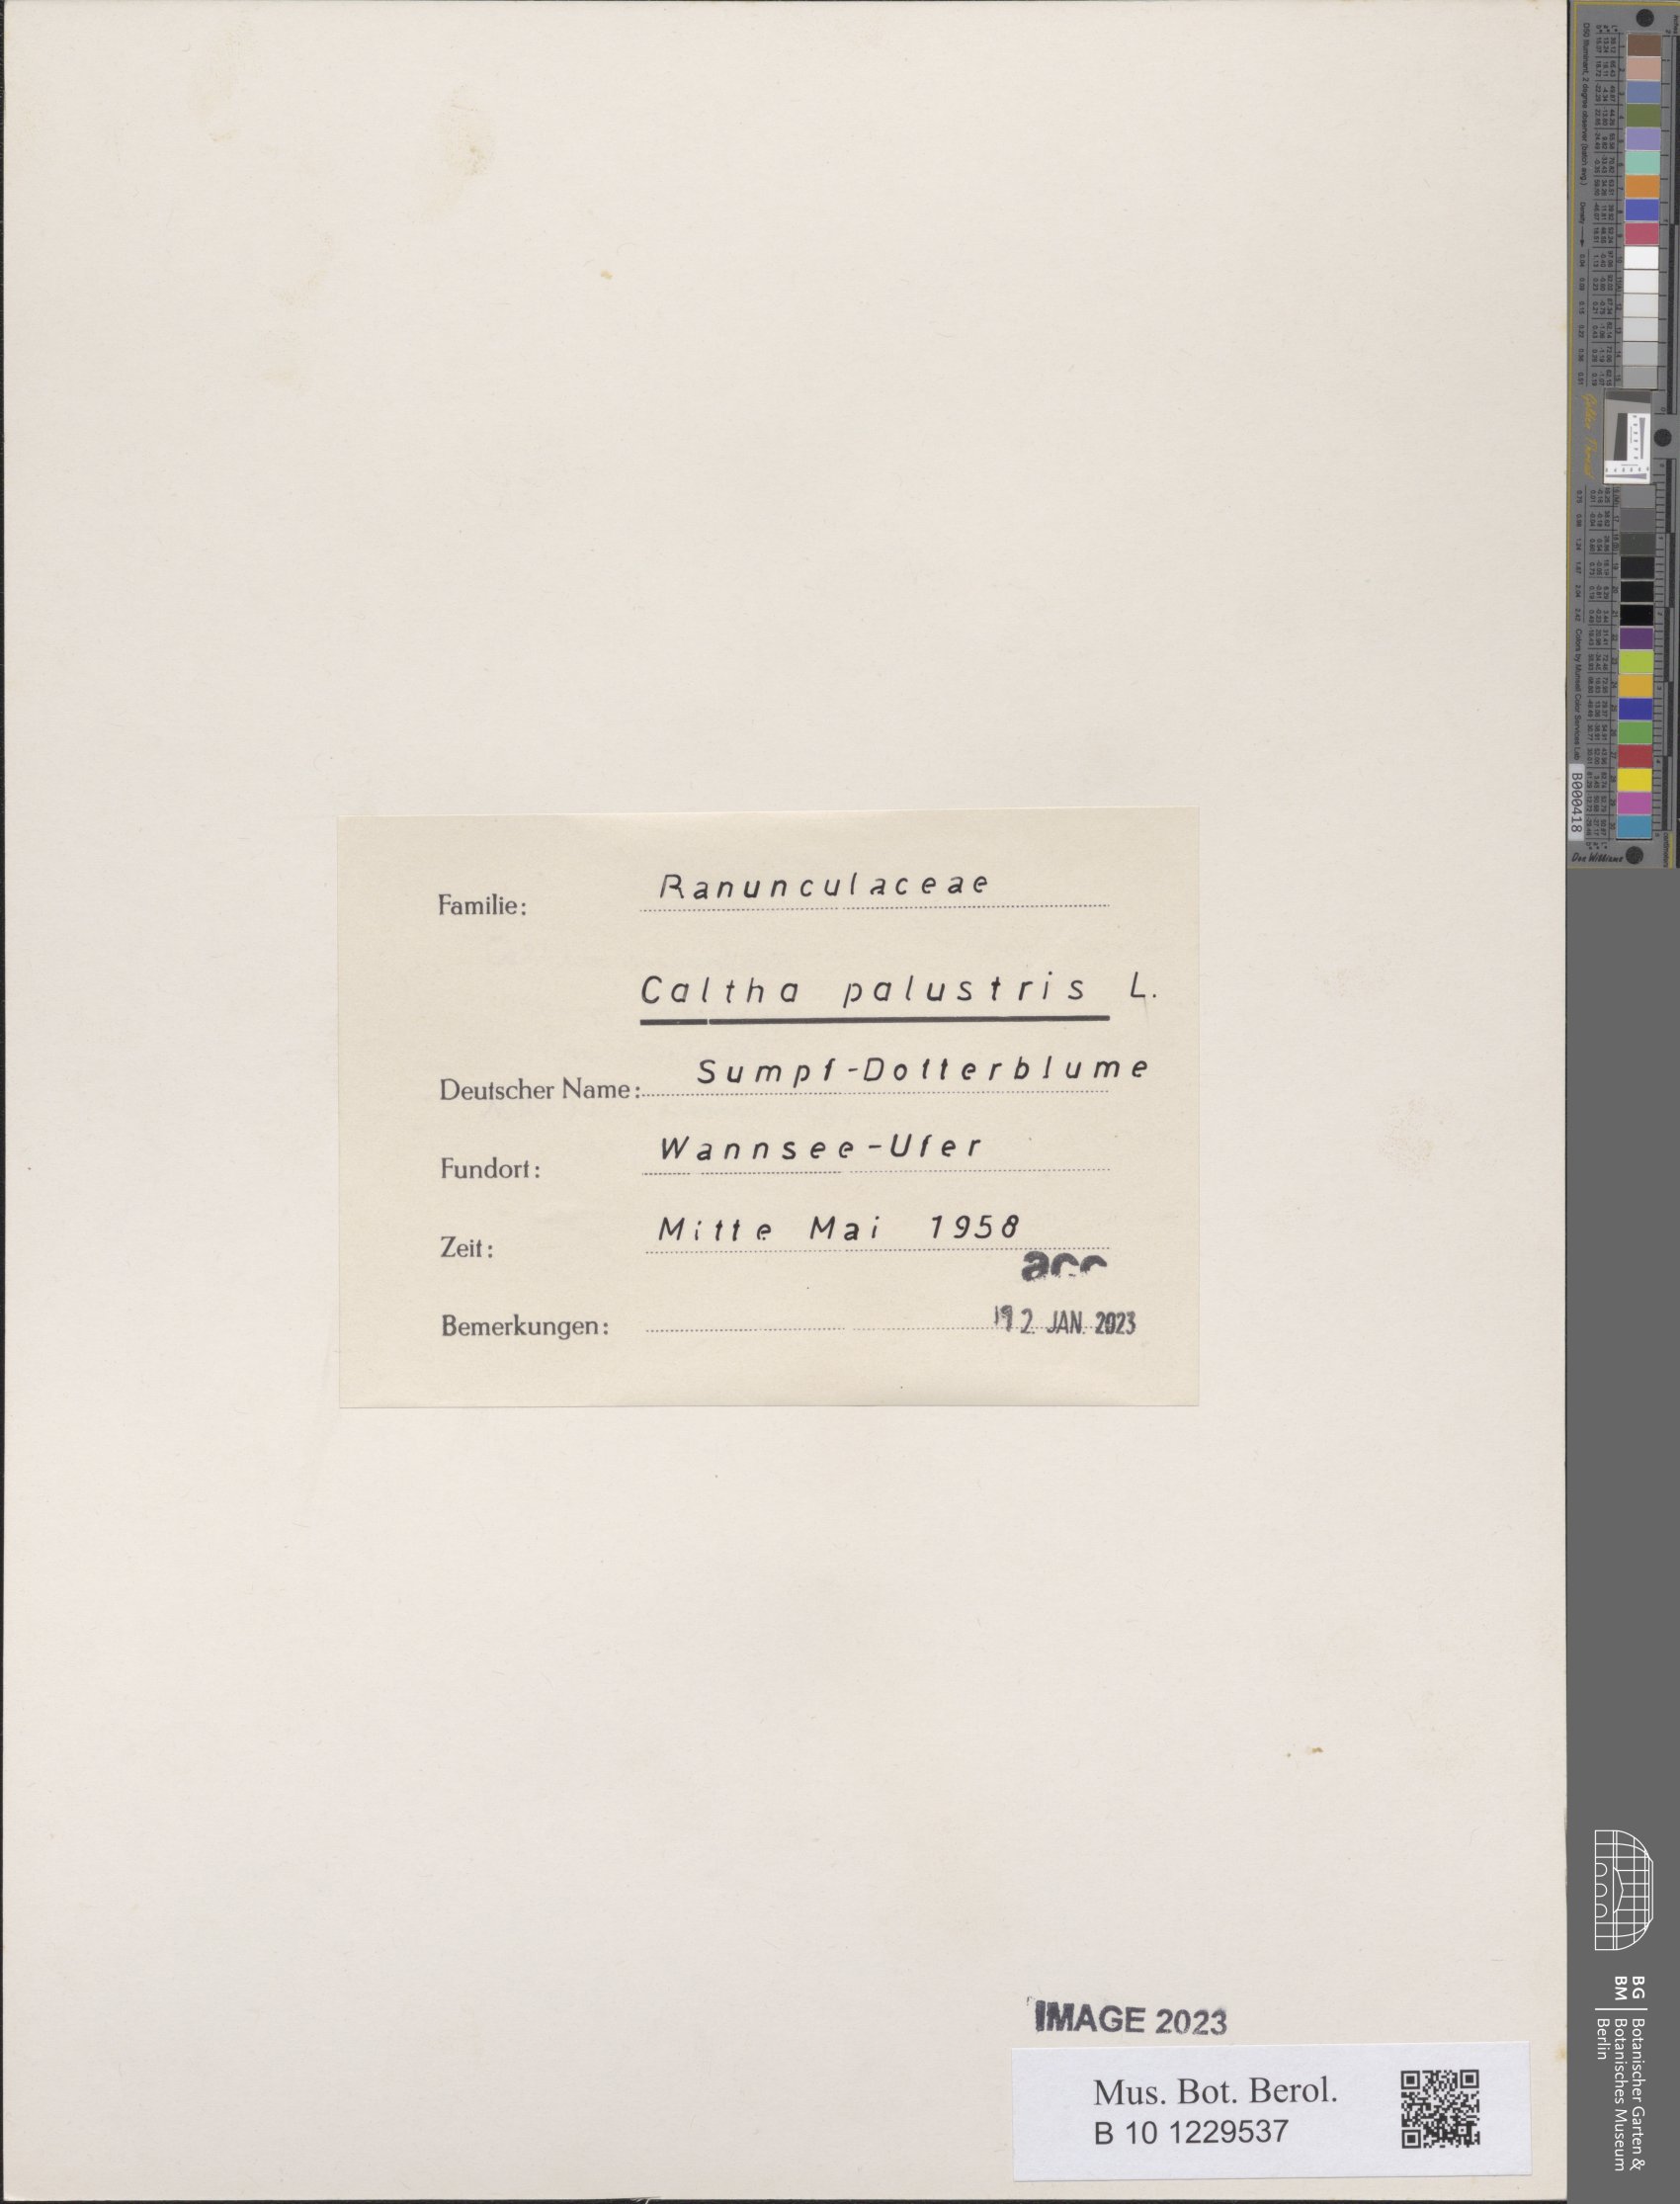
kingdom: Plantae
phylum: Tracheophyta
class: Magnoliopsida
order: Ranunculales
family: Ranunculaceae
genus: Caltha
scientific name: Caltha palustris
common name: Marsh marigold
